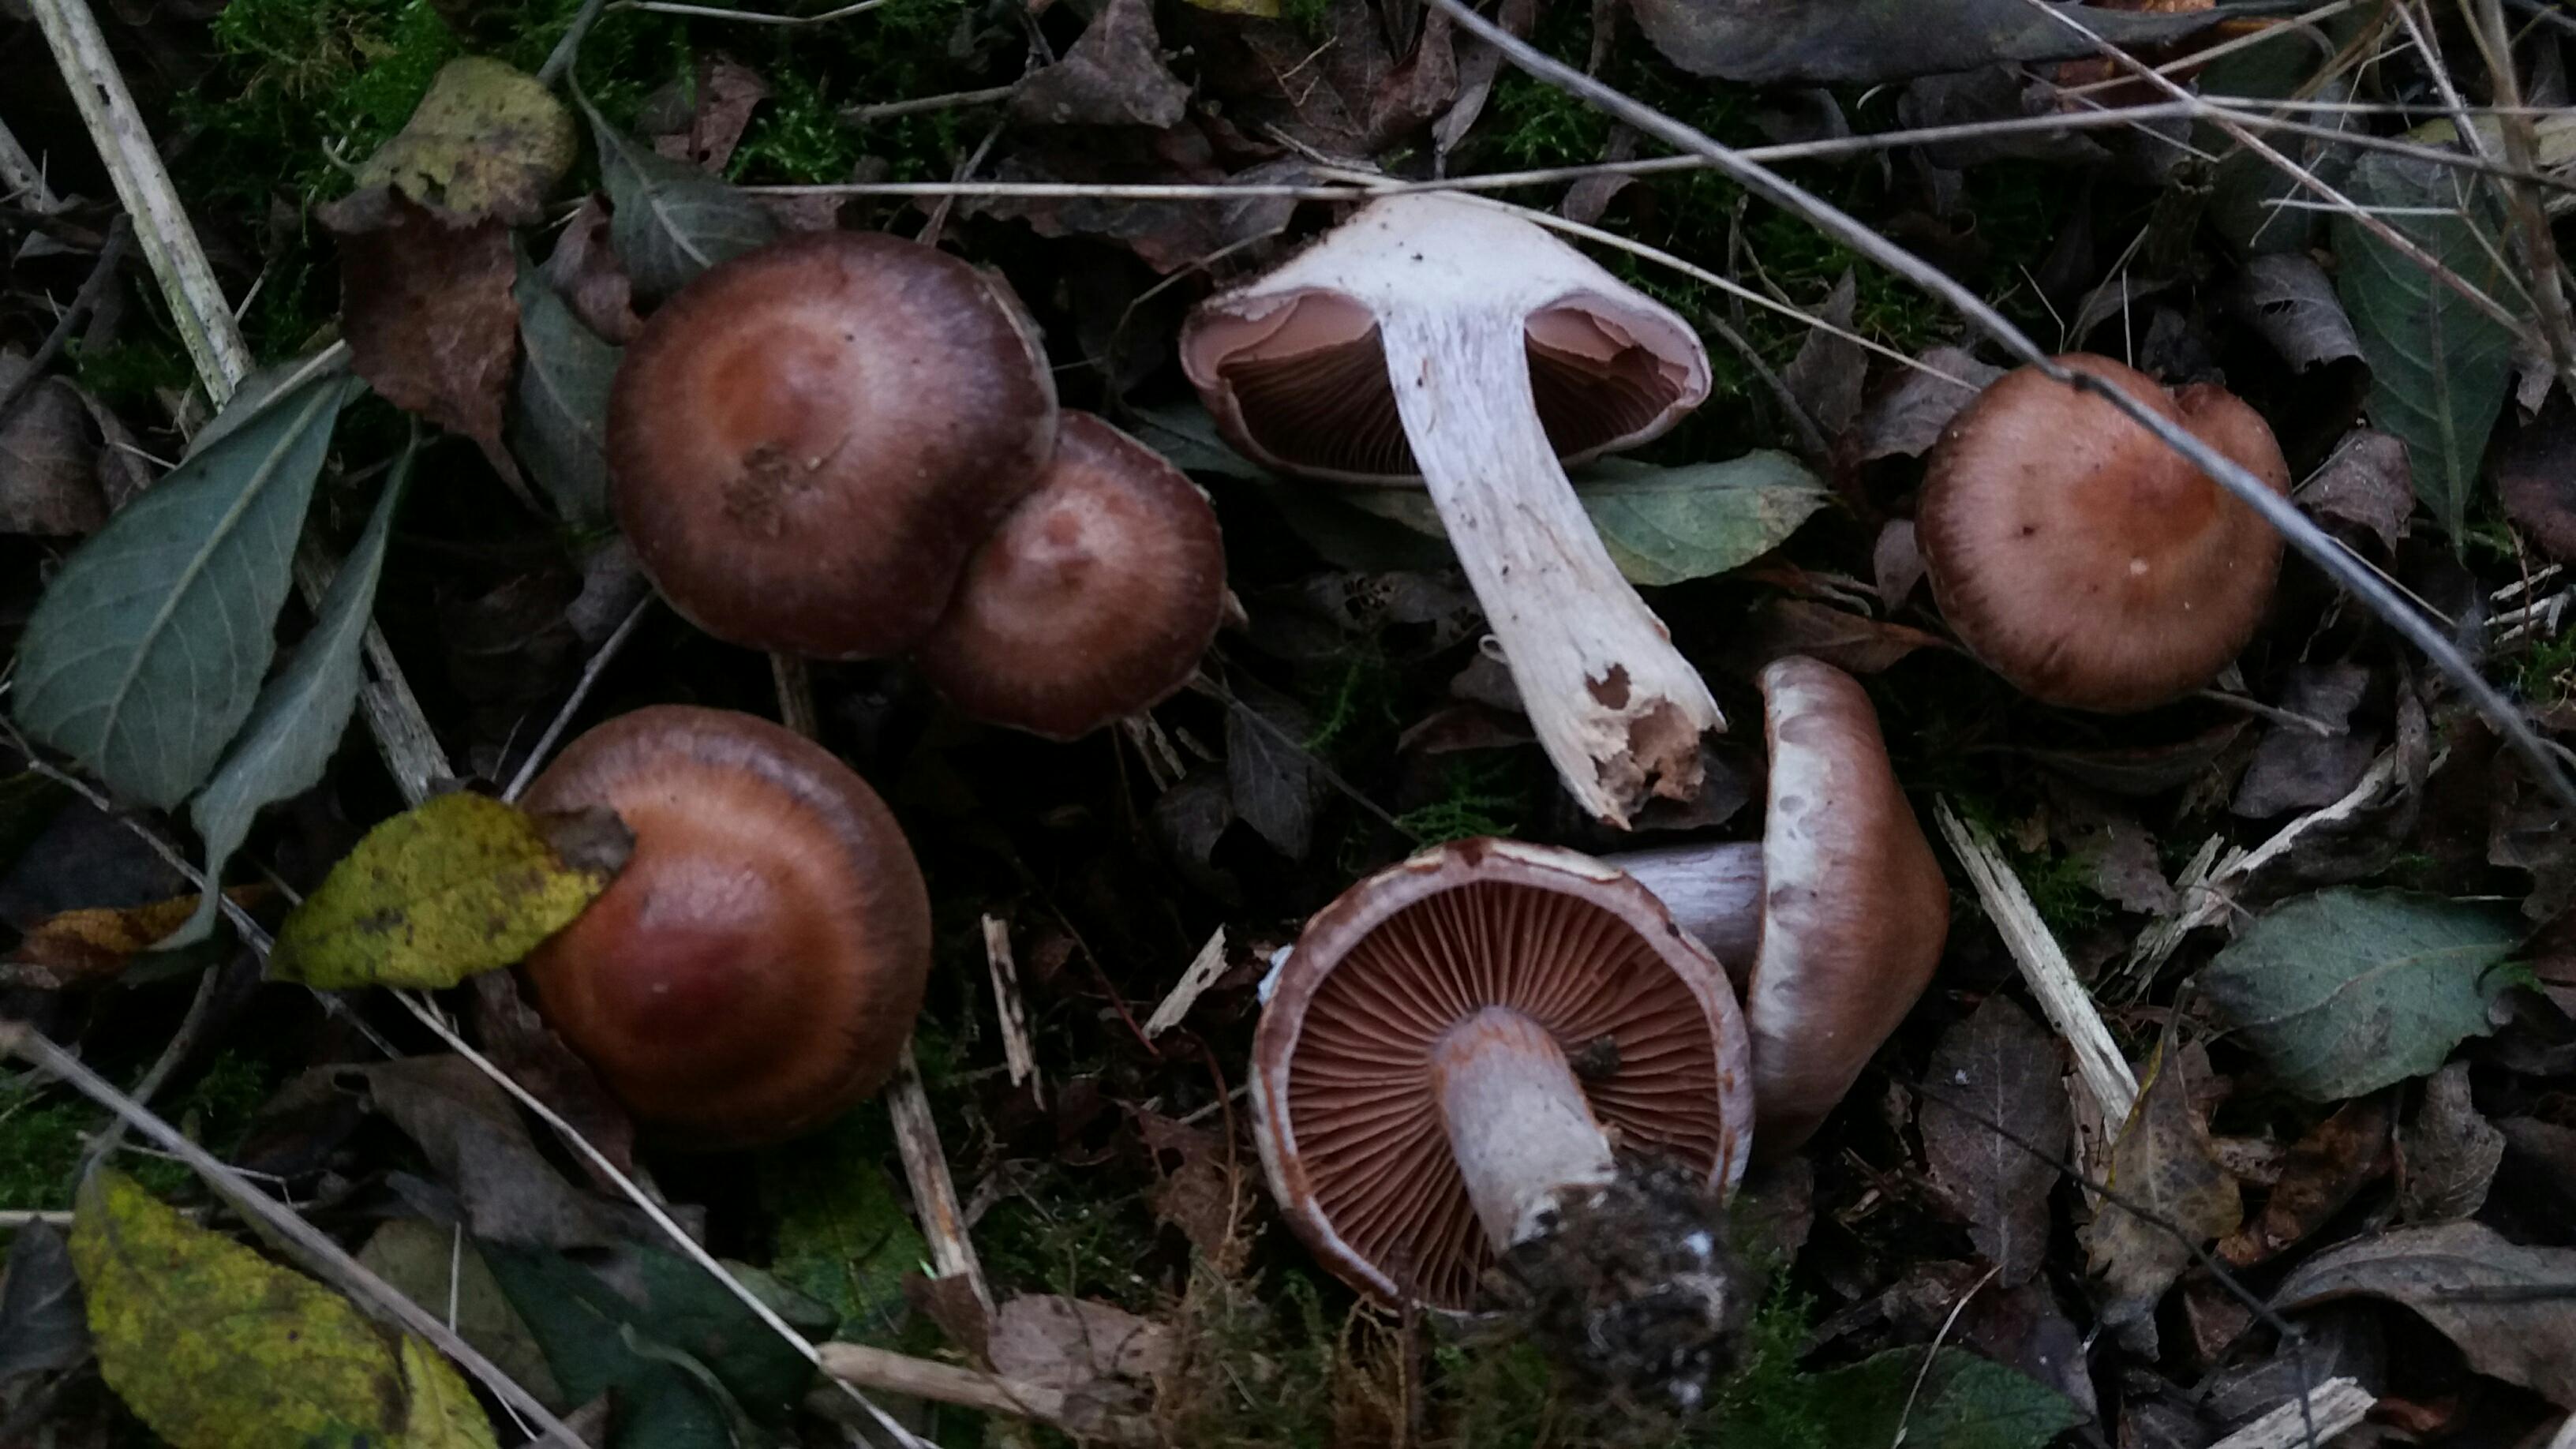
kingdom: Fungi
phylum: Basidiomycota
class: Agaricomycetes
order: Agaricales
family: Cortinariaceae
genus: Cortinarius
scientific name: Cortinarius saturninus
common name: brunviolet slørhat
